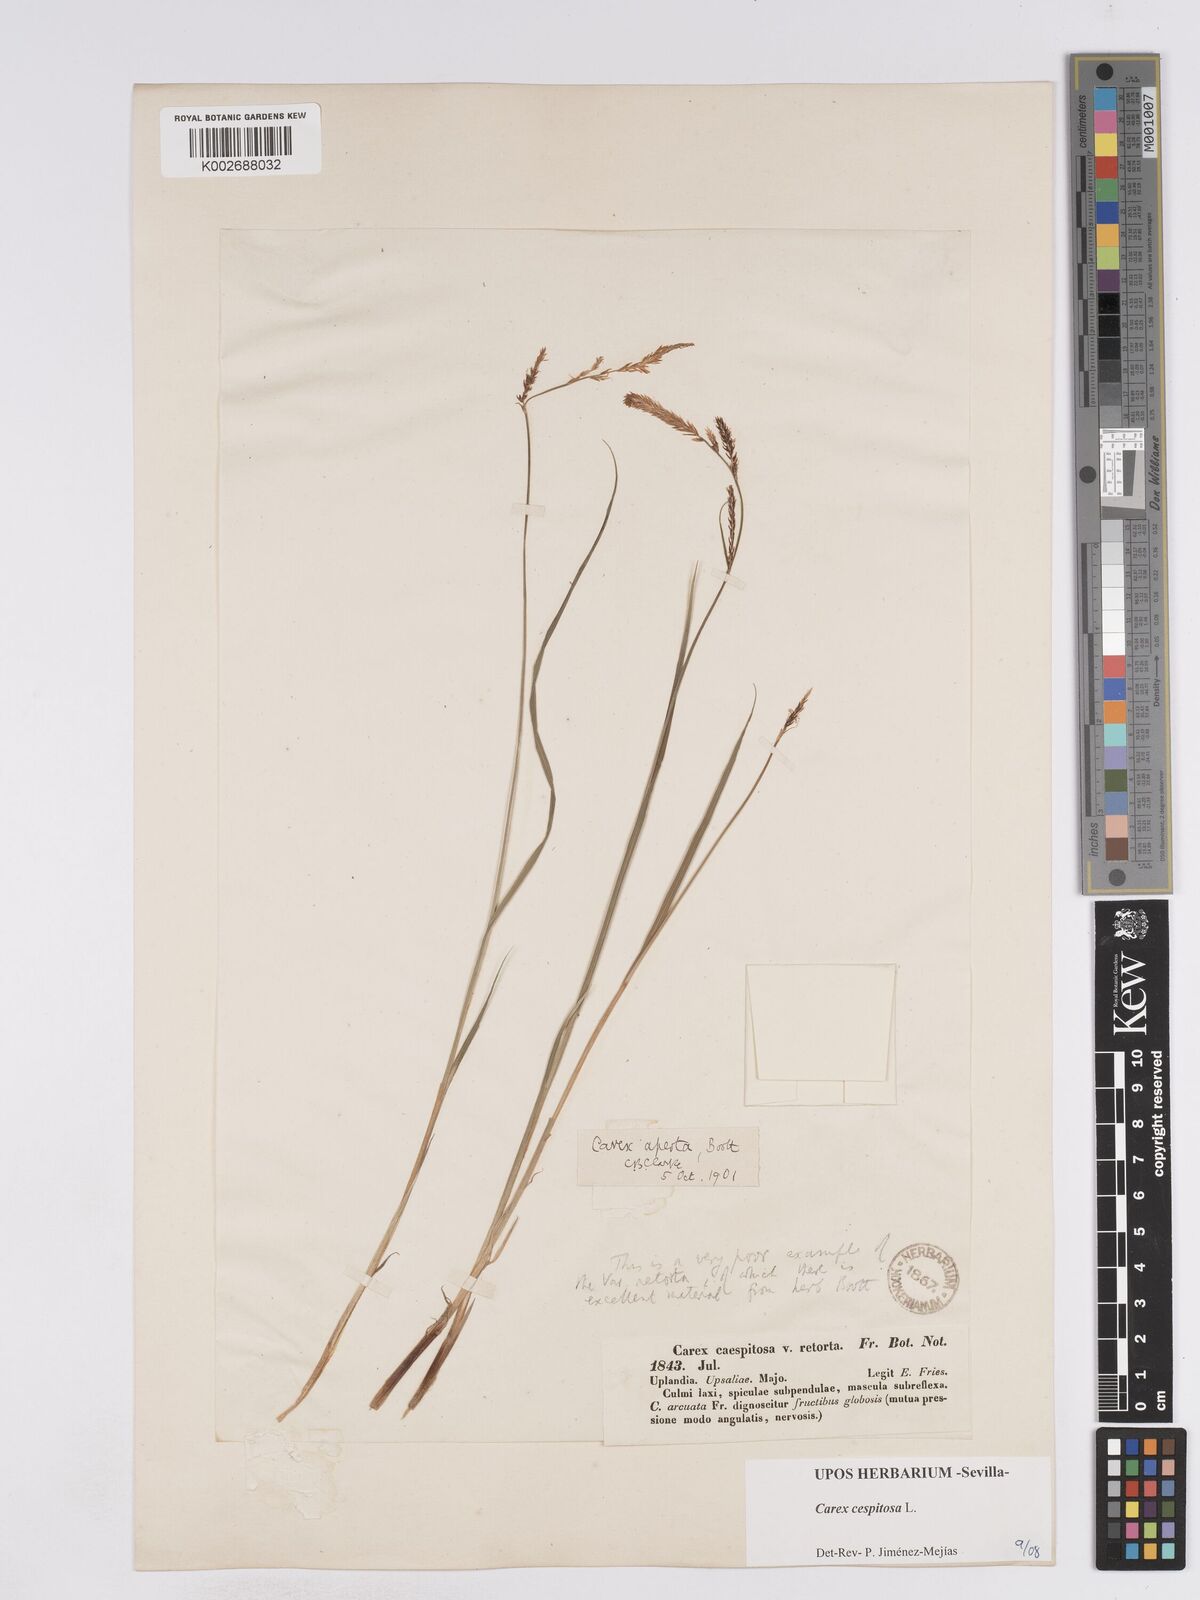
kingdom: Plantae
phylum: Tracheophyta
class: Liliopsida
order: Poales
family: Cyperaceae
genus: Carex
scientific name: Carex
